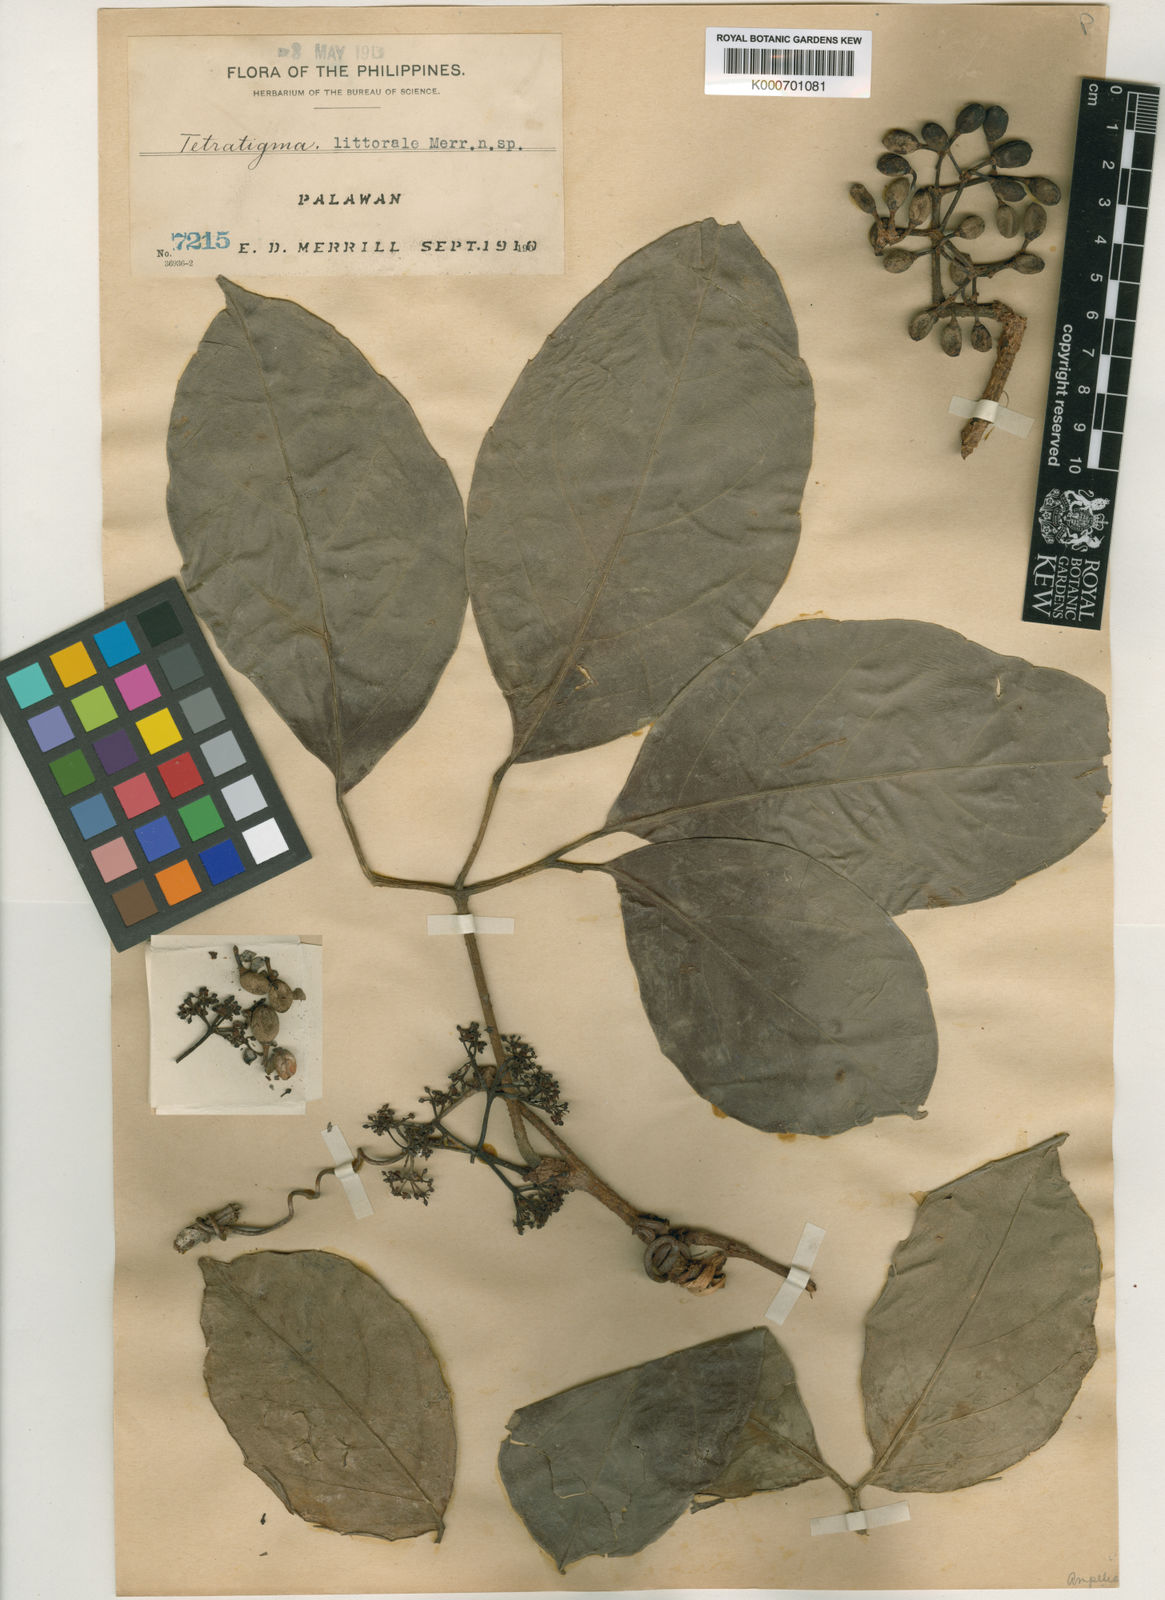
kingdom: Plantae
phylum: Tracheophyta
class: Magnoliopsida
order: Vitales
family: Vitaceae
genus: Tetrastigma
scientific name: Tetrastigma littorale
